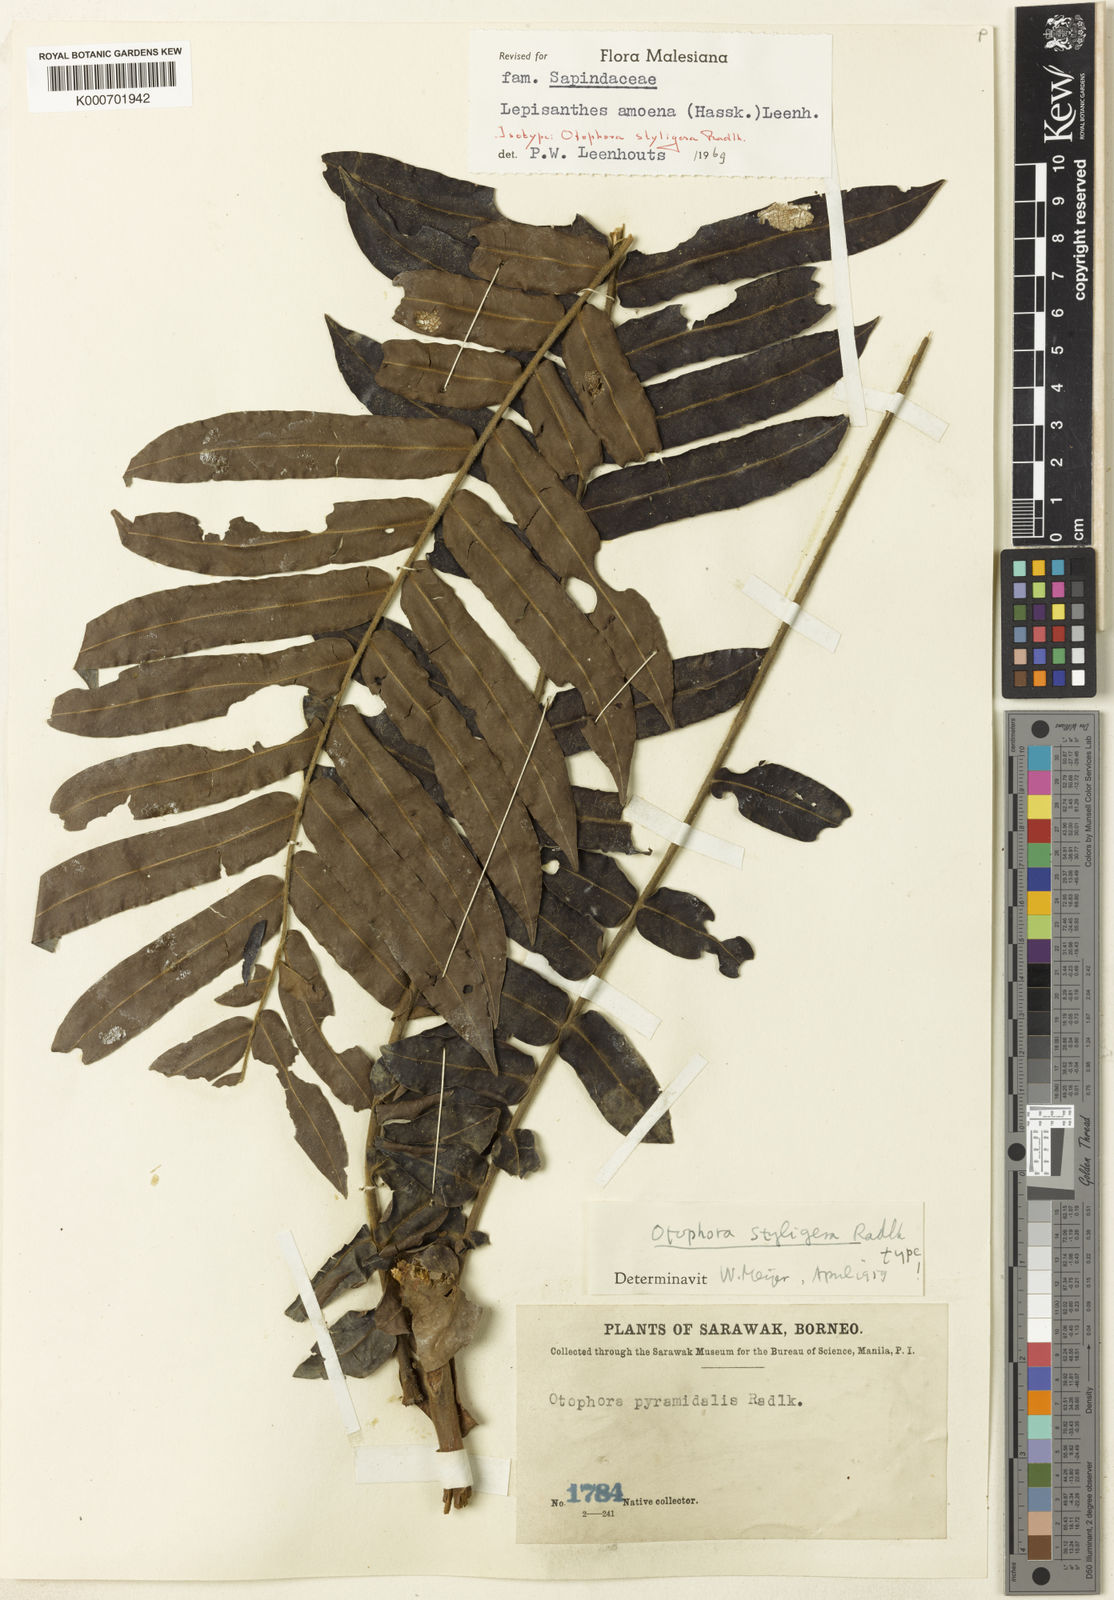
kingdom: Plantae
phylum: Tracheophyta
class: Magnoliopsida
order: Sapindales
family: Sapindaceae
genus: Lepisanthes
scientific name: Lepisanthes amoena
